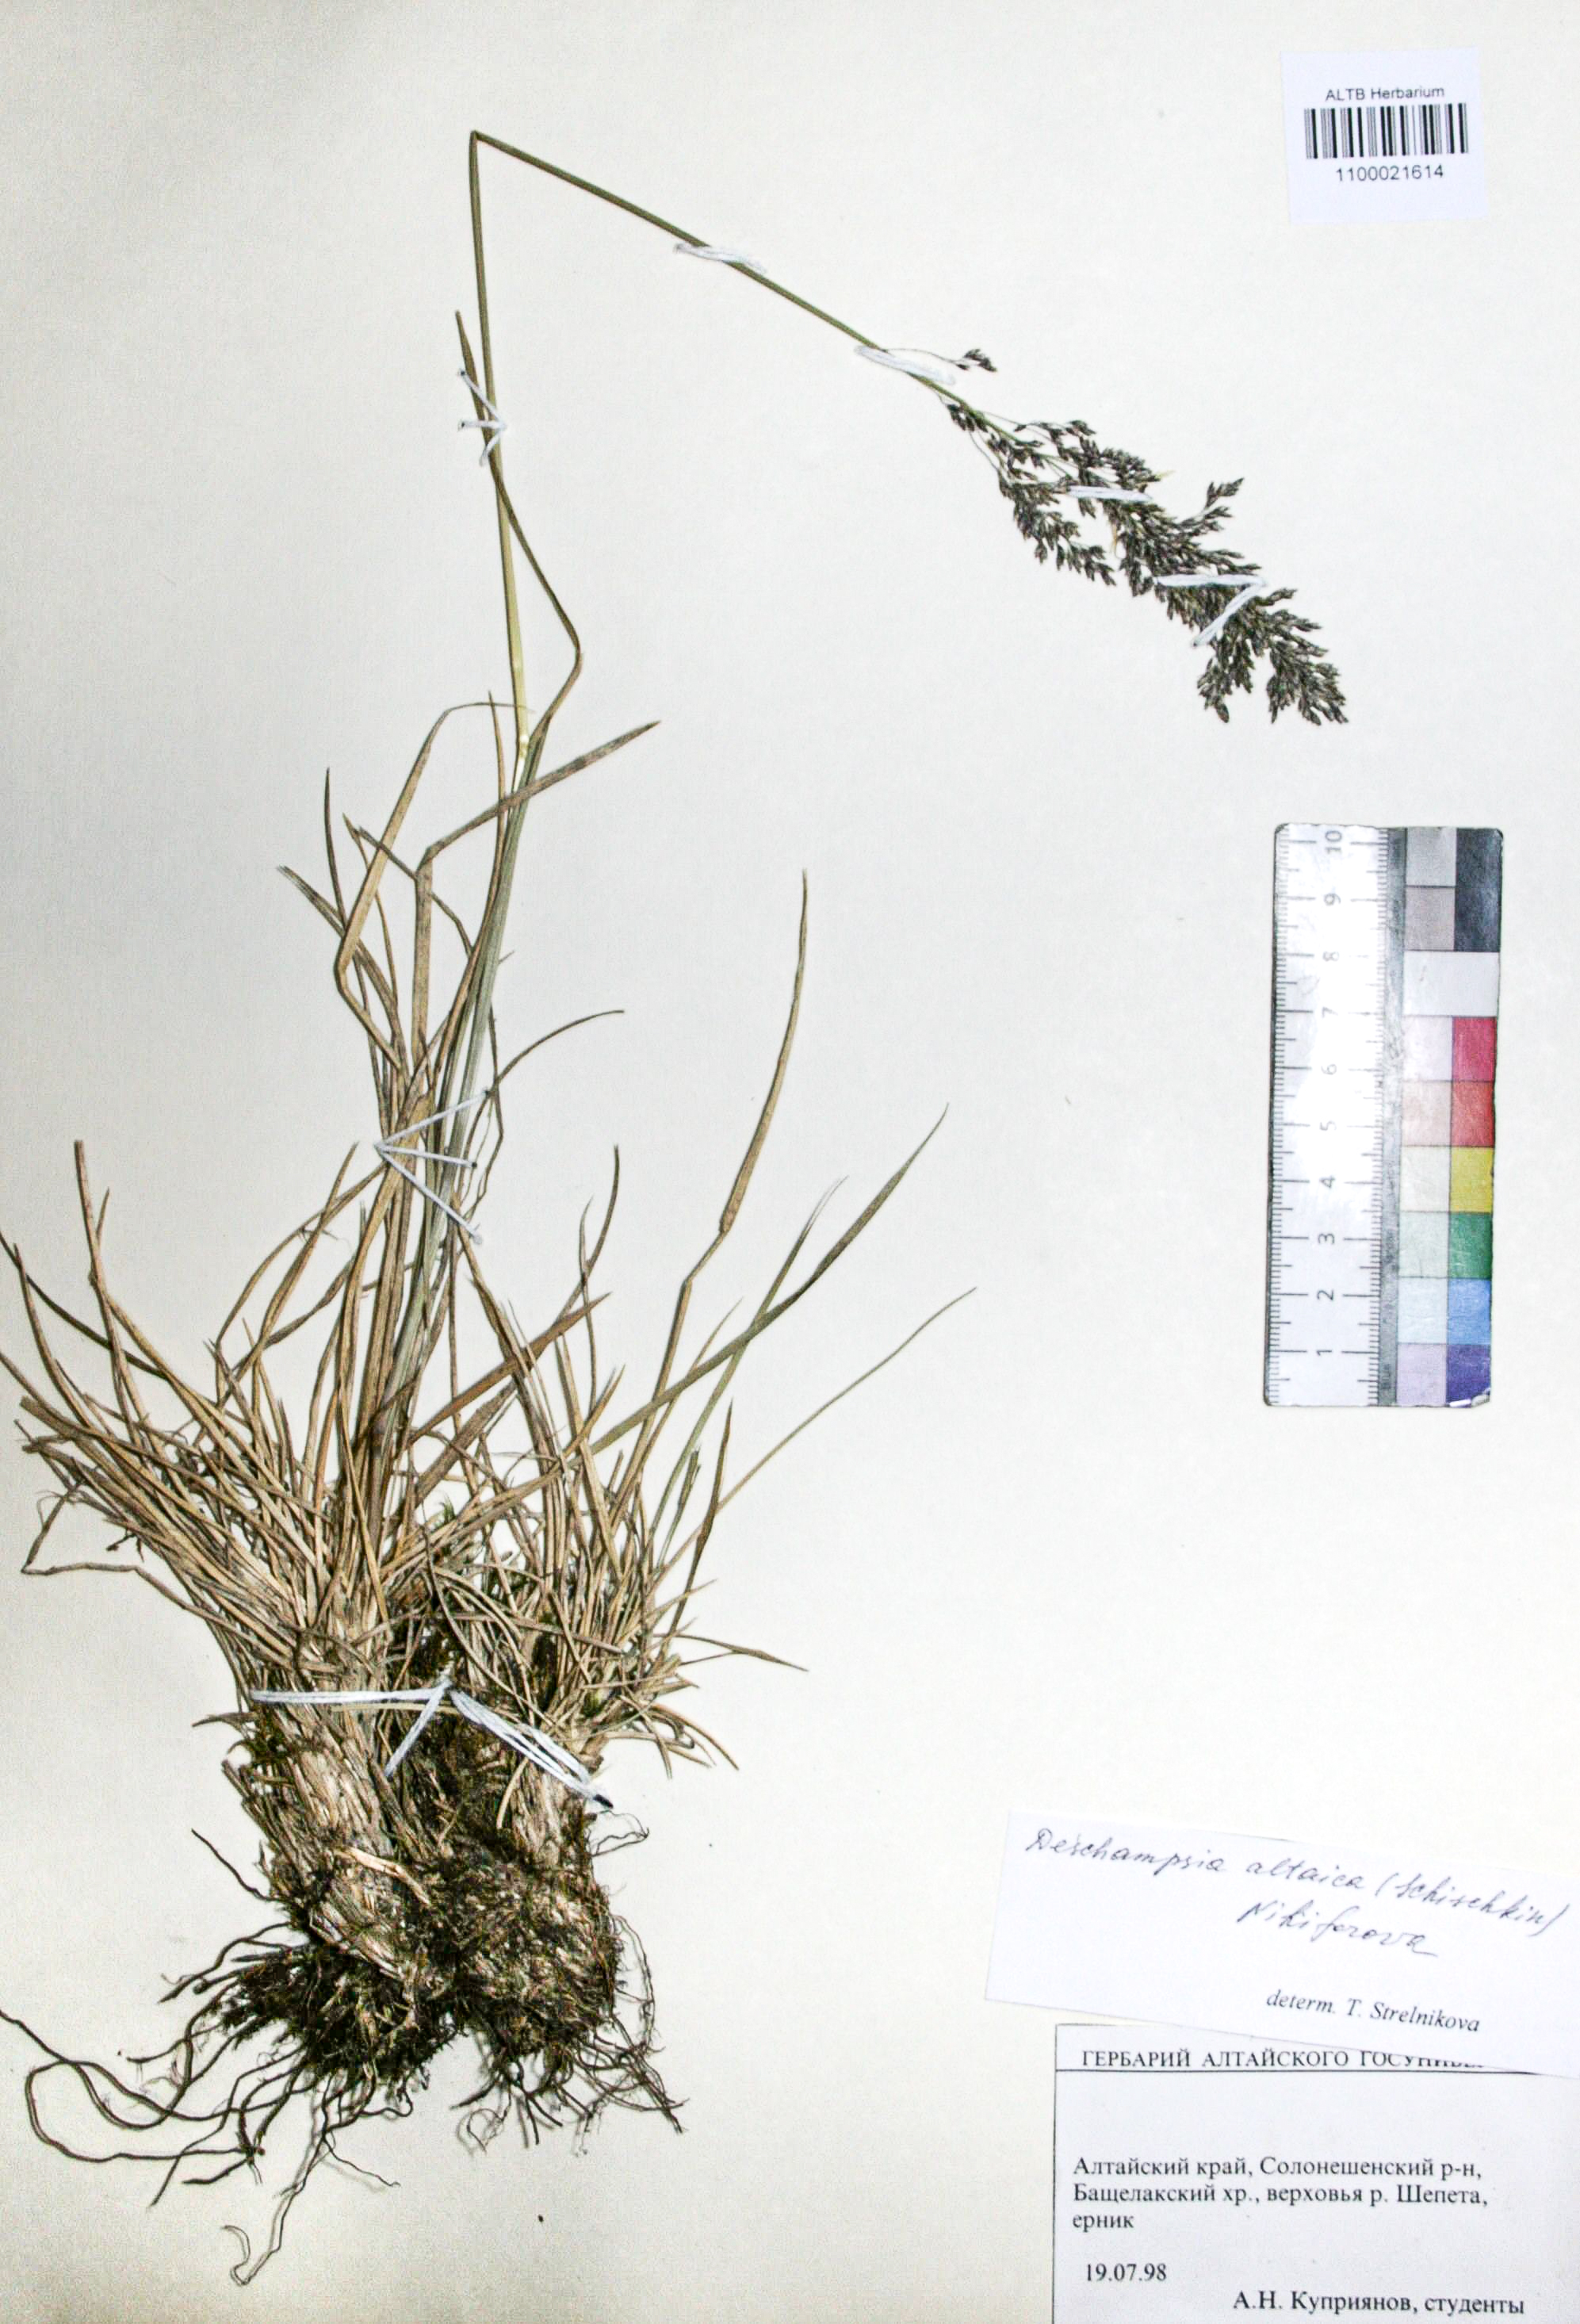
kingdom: Plantae
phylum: Tracheophyta
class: Liliopsida
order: Poales
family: Poaceae
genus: Deschampsia
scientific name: Deschampsia cespitosa
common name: Tufted hair-grass
